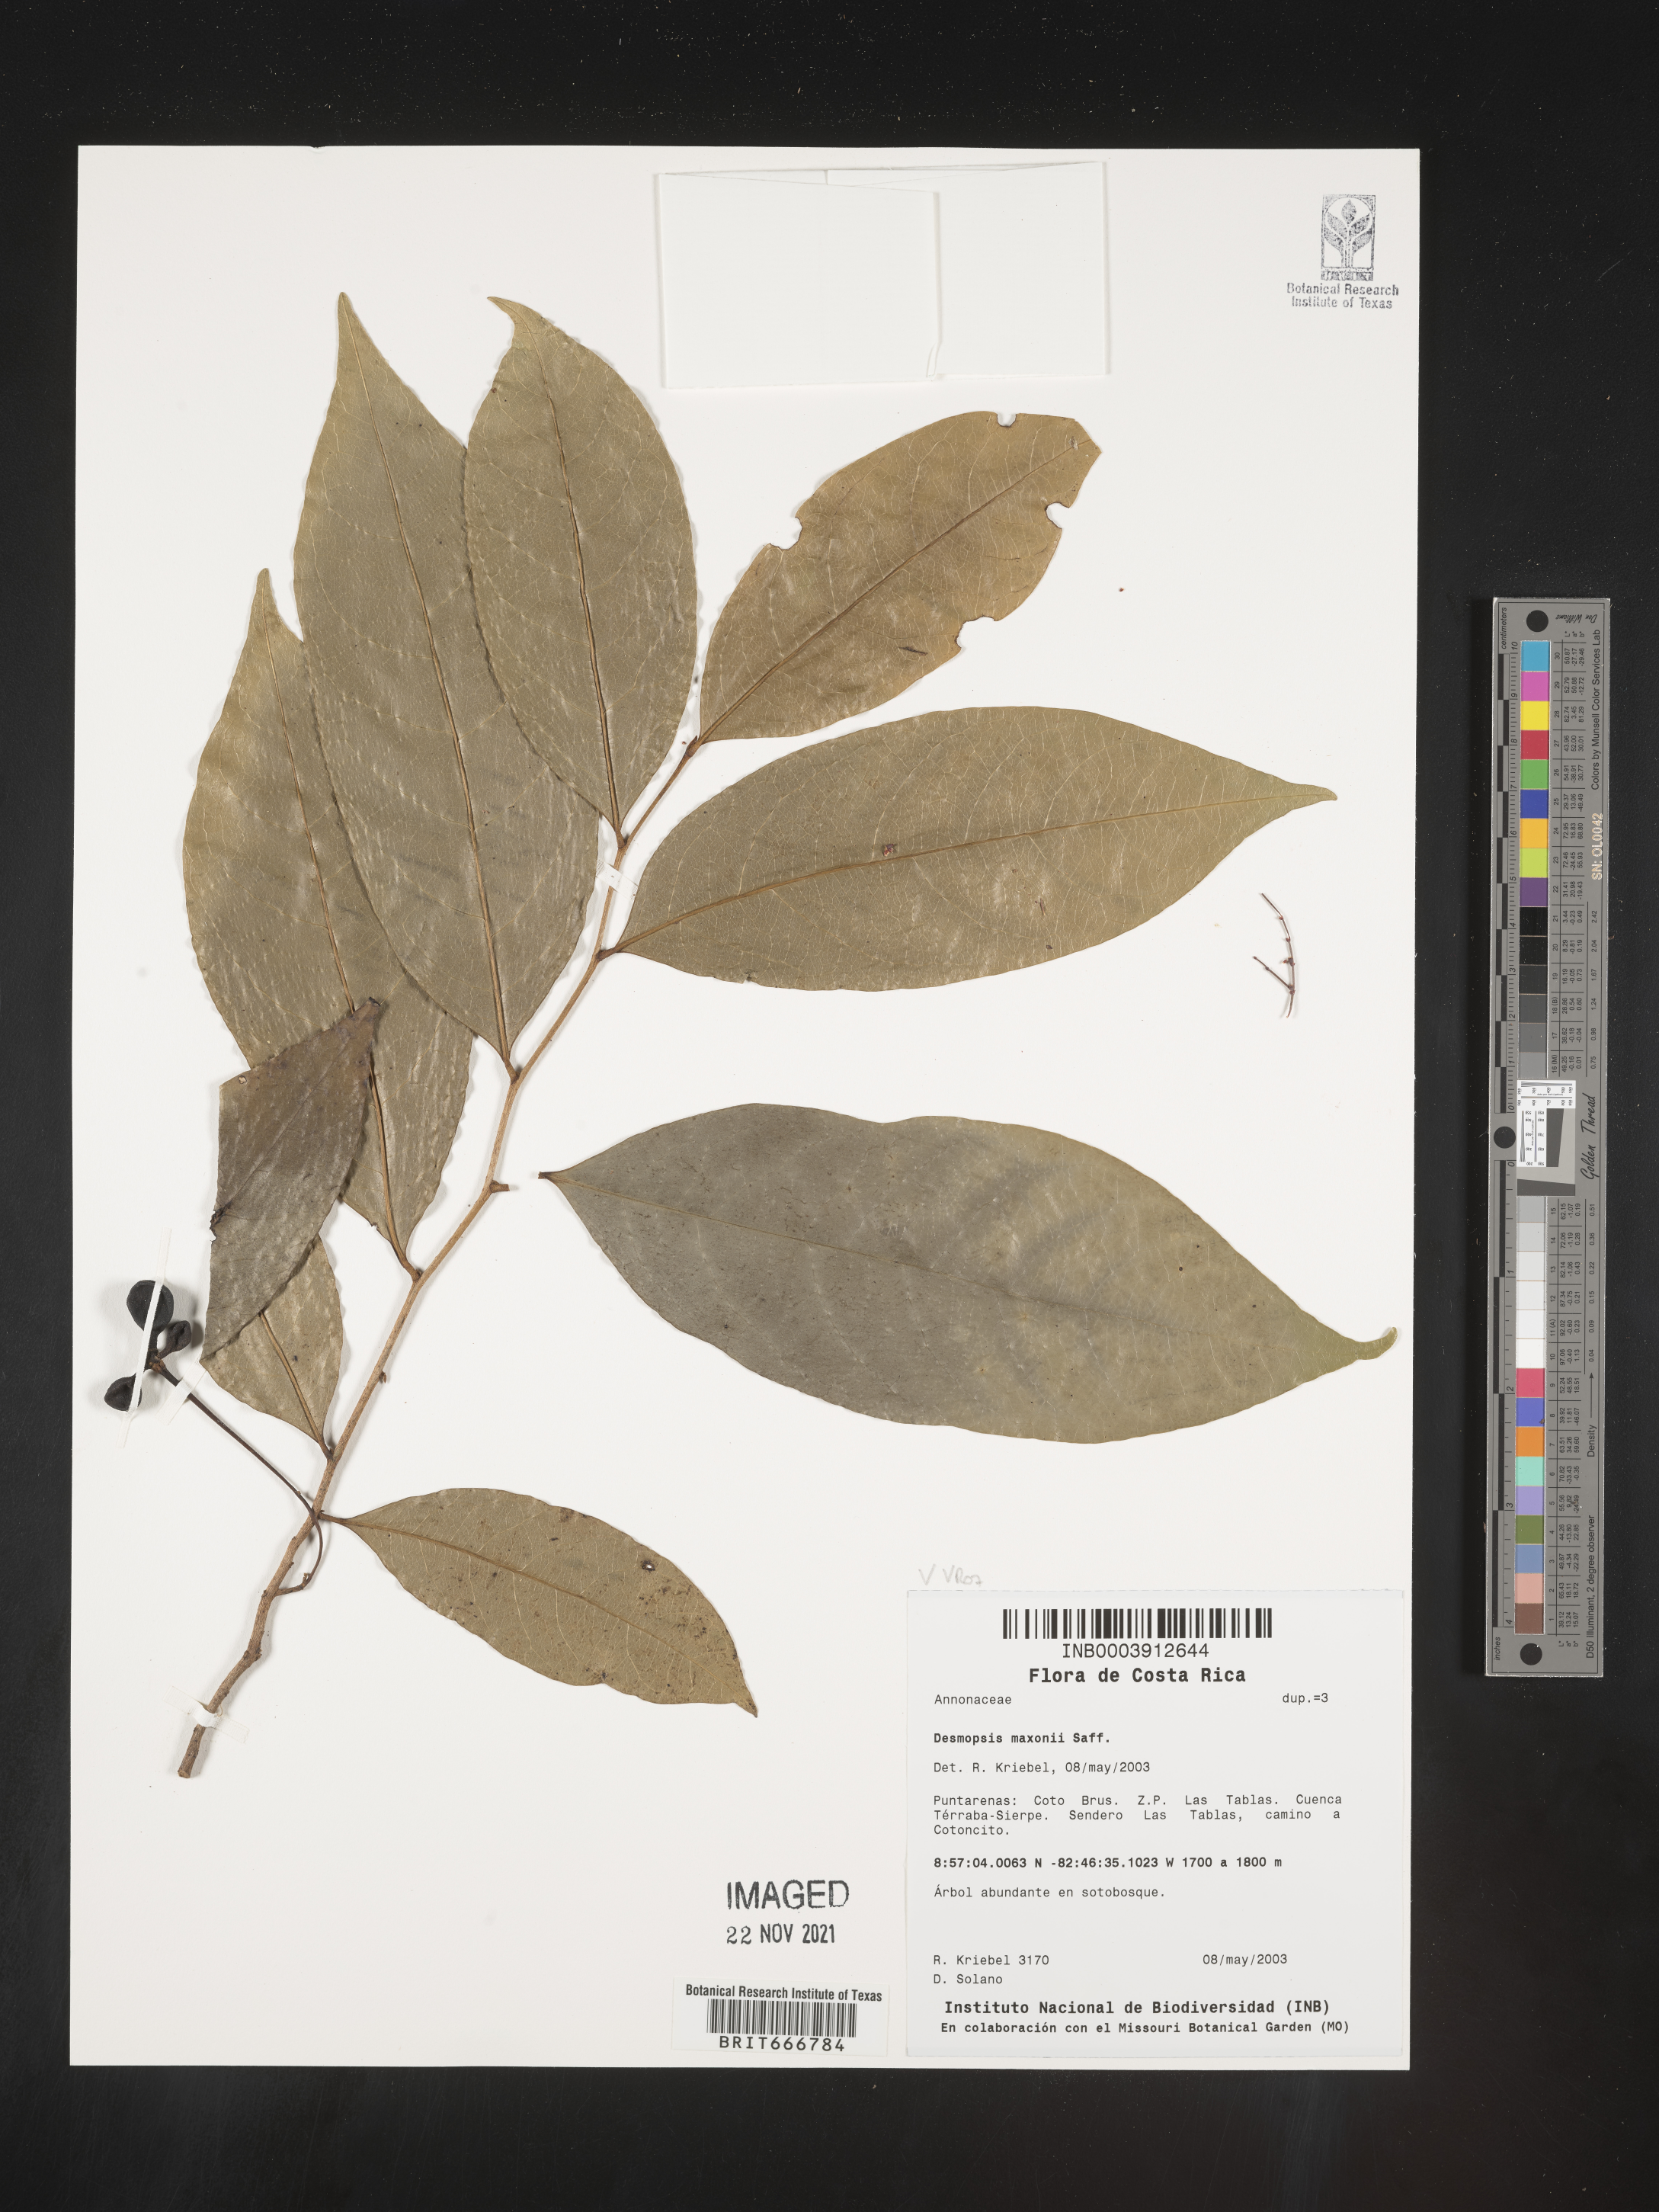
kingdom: Plantae
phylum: Tracheophyta
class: Magnoliopsida
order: Magnoliales
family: Annonaceae
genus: Desmopsis
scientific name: Desmopsis
